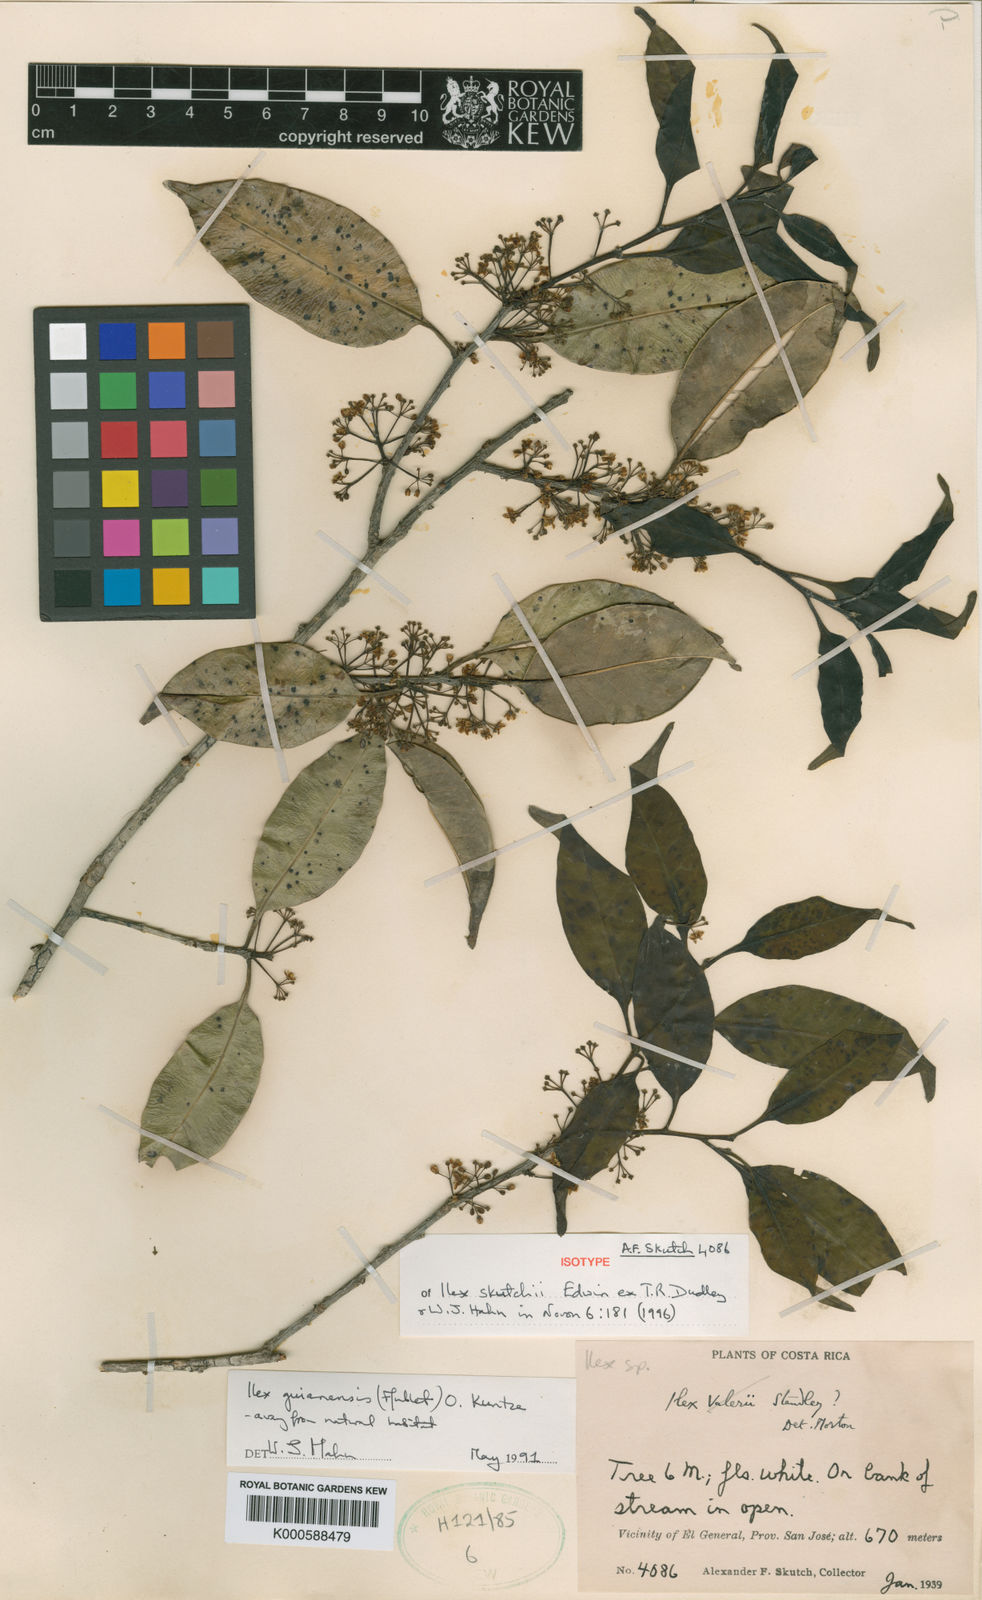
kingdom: Plantae
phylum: Tracheophyta
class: Magnoliopsida
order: Aquifoliales
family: Aquifoliaceae
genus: Ilex
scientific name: Ilex skutchii
